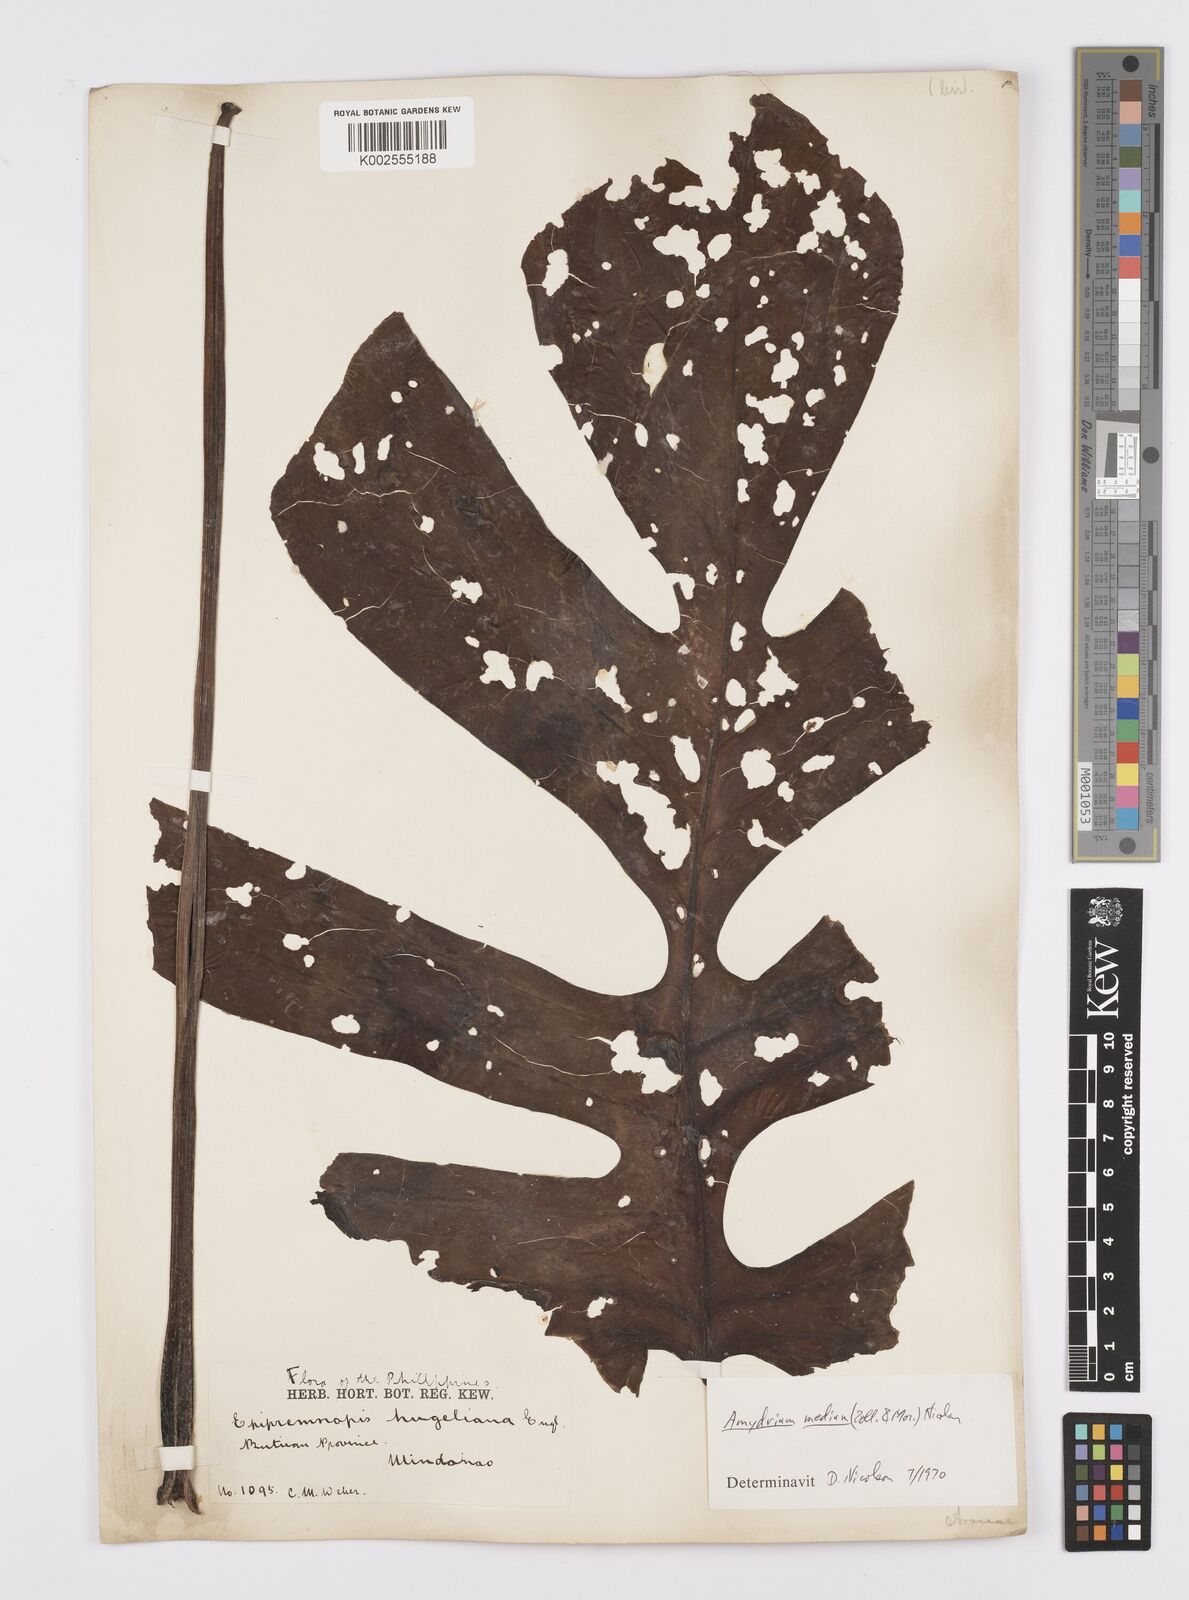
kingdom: Plantae
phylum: Tracheophyta
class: Liliopsida
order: Alismatales
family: Araceae
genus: Amydrium
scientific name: Amydrium medium
